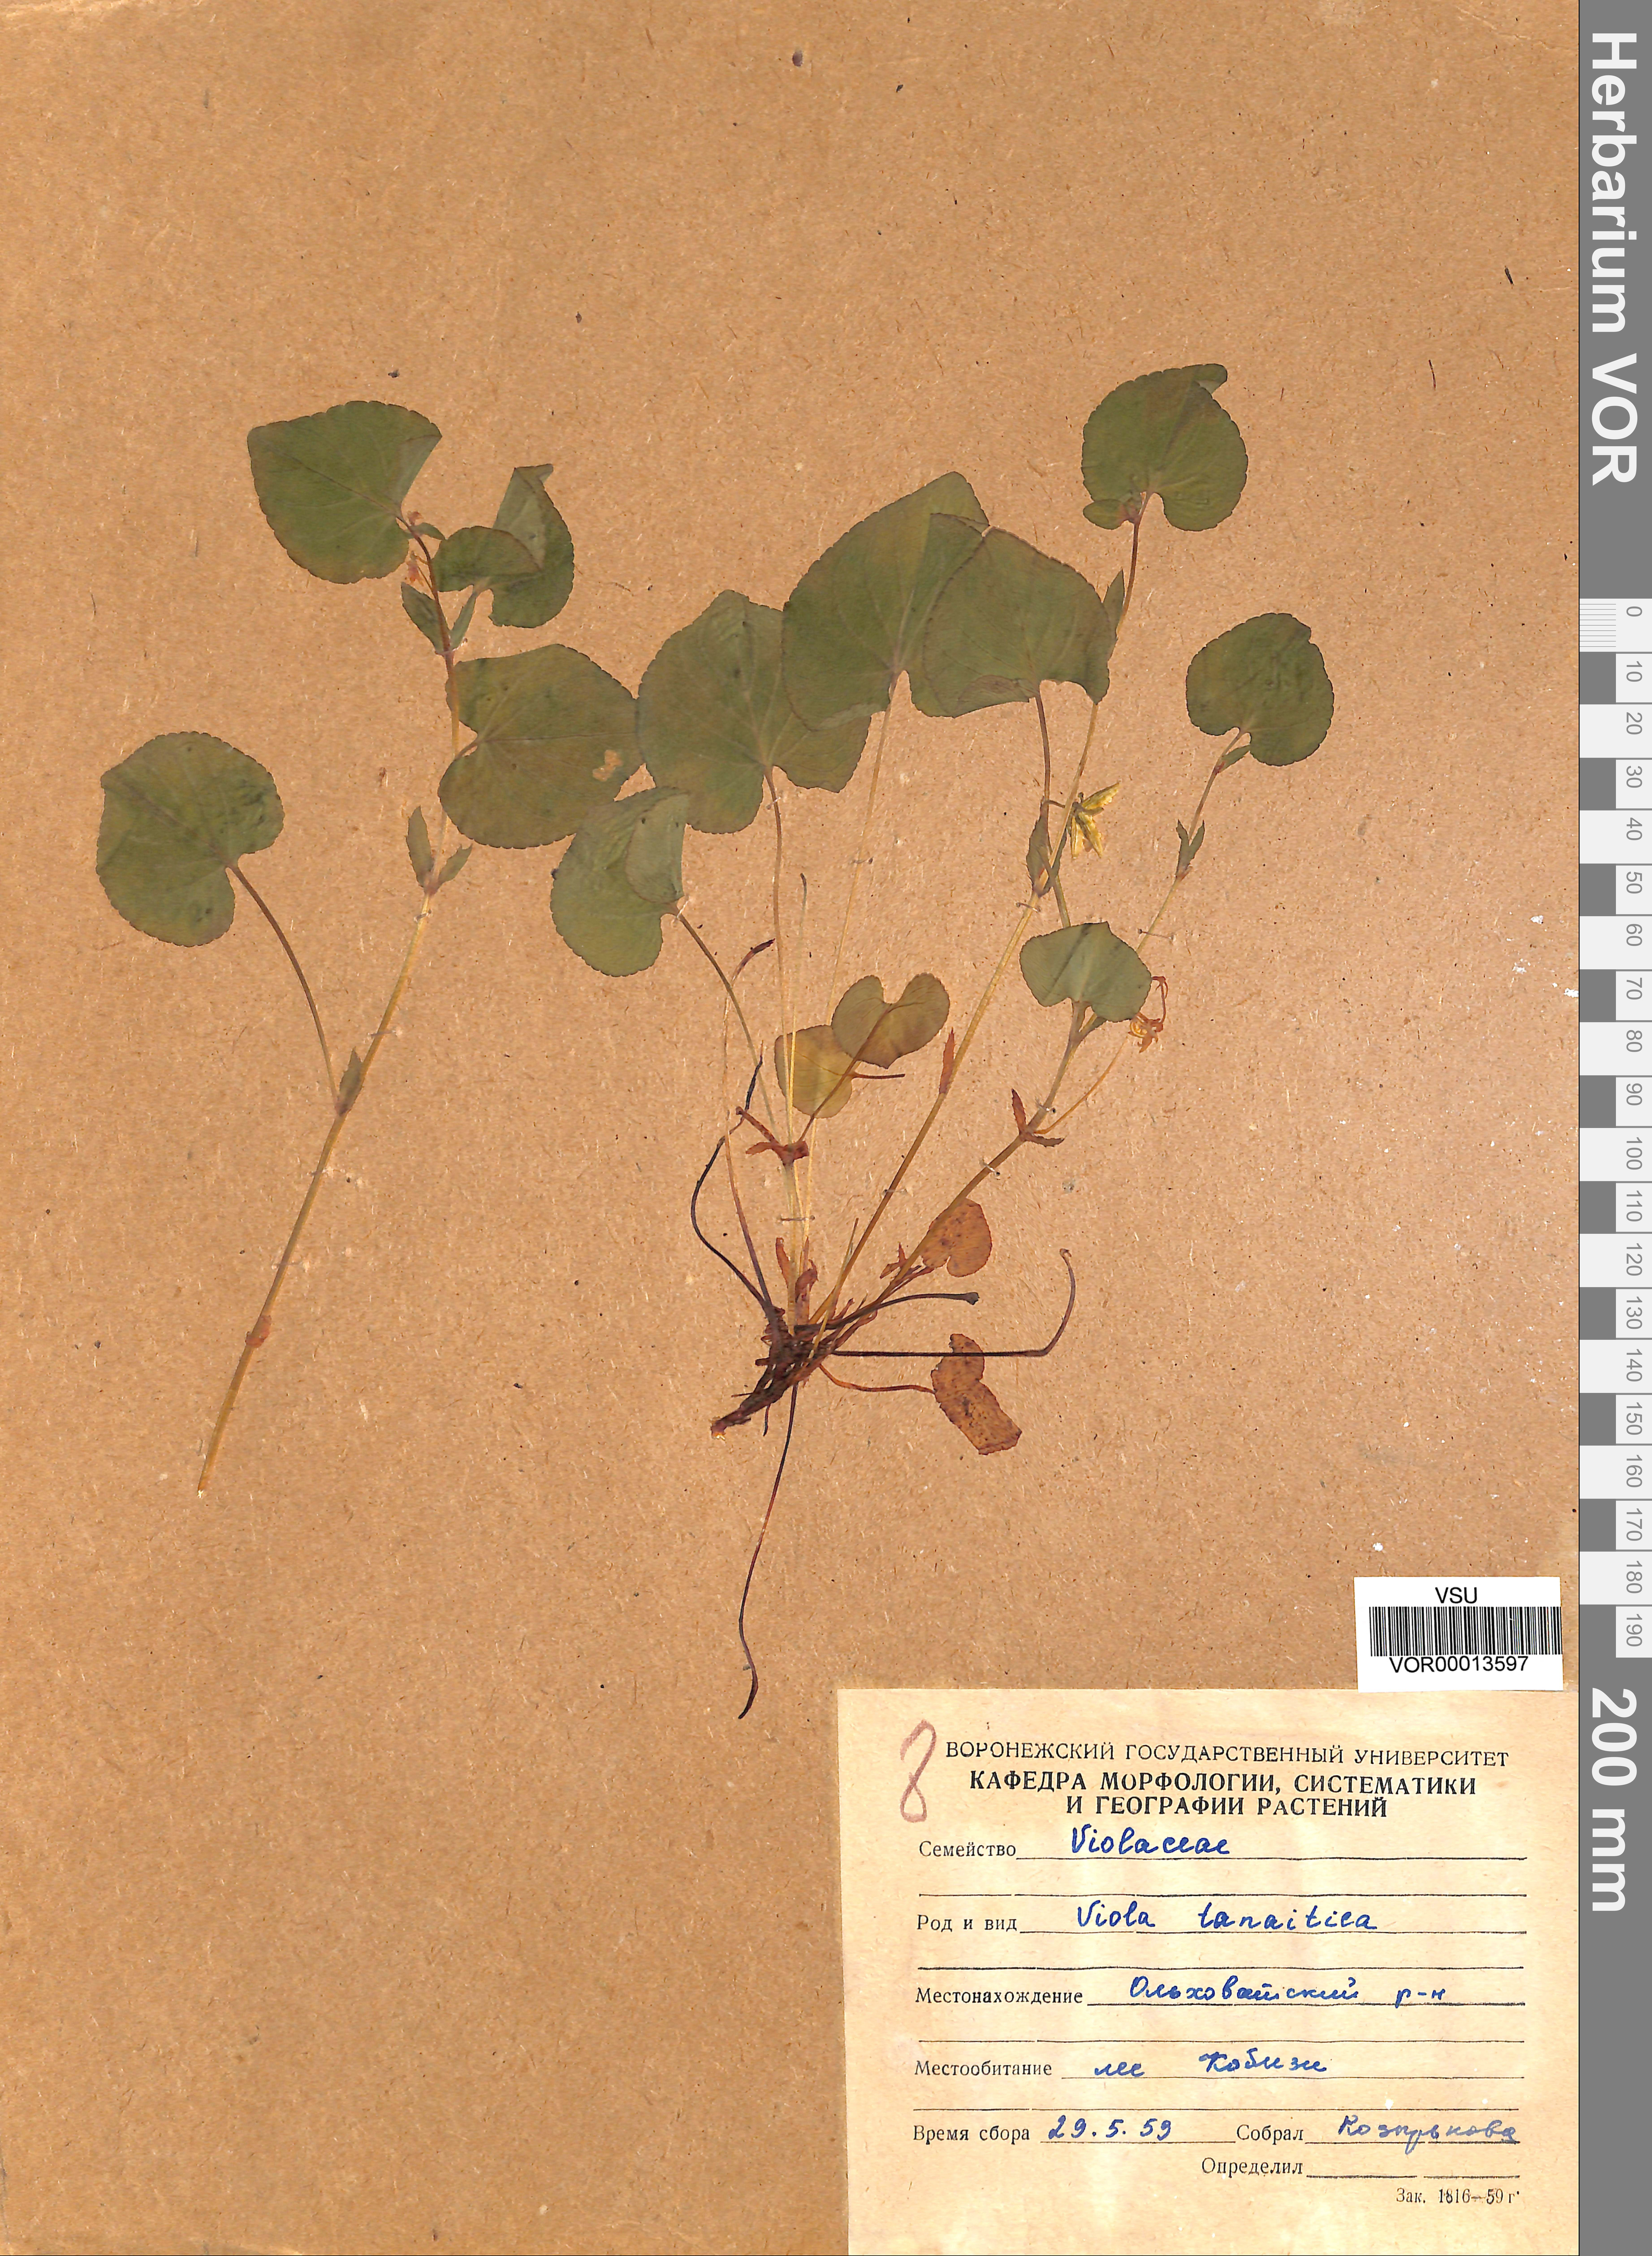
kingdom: Plantae
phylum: Tracheophyta
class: Magnoliopsida
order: Malpighiales
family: Violaceae
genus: Viola
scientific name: Viola tanaitica
